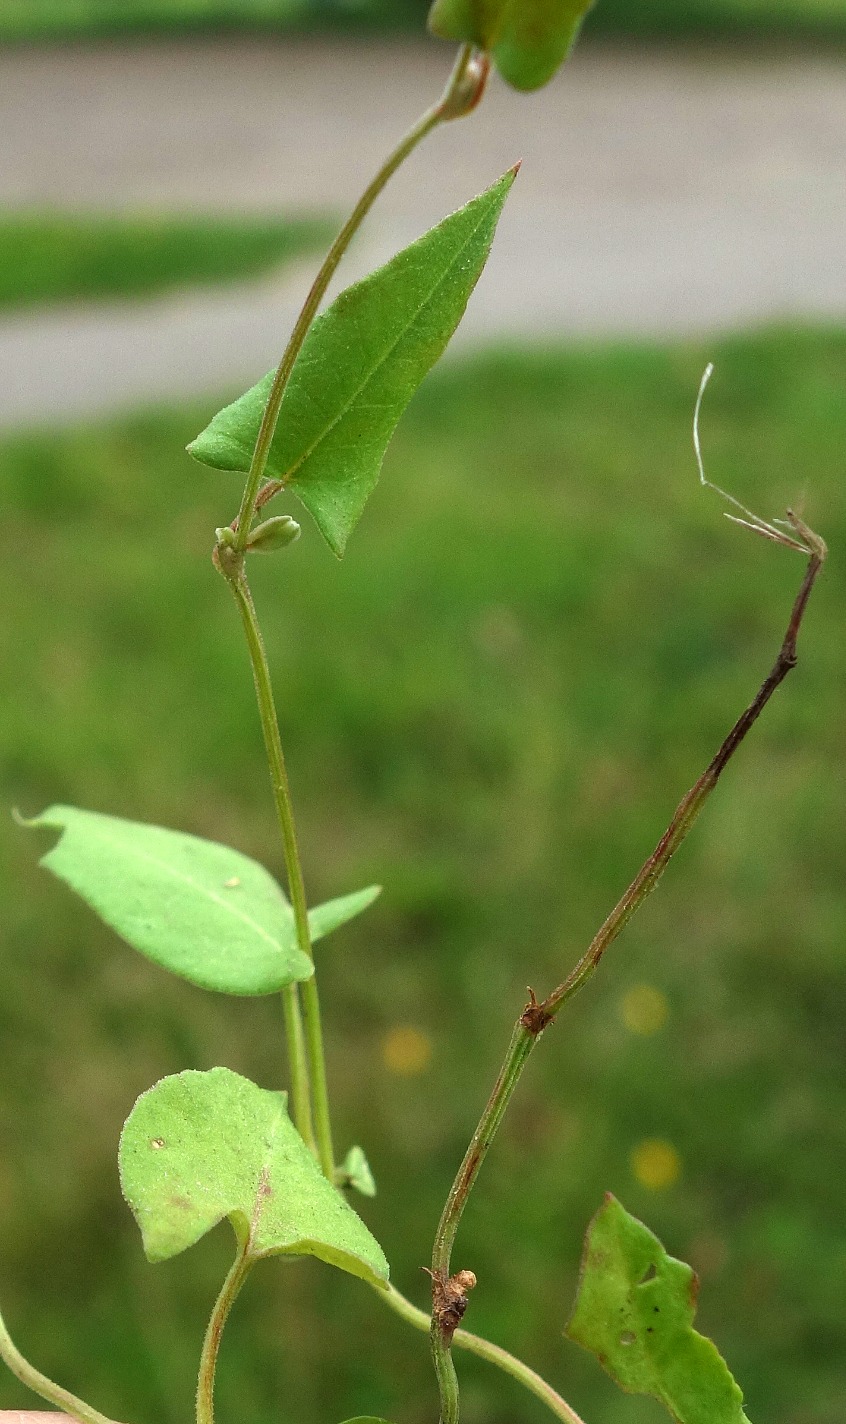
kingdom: Plantae
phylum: Tracheophyta
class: Magnoliopsida
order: Caryophyllales
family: Polygonaceae
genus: Fallopia
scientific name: Fallopia convolvulus
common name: Snerle-pileurt
